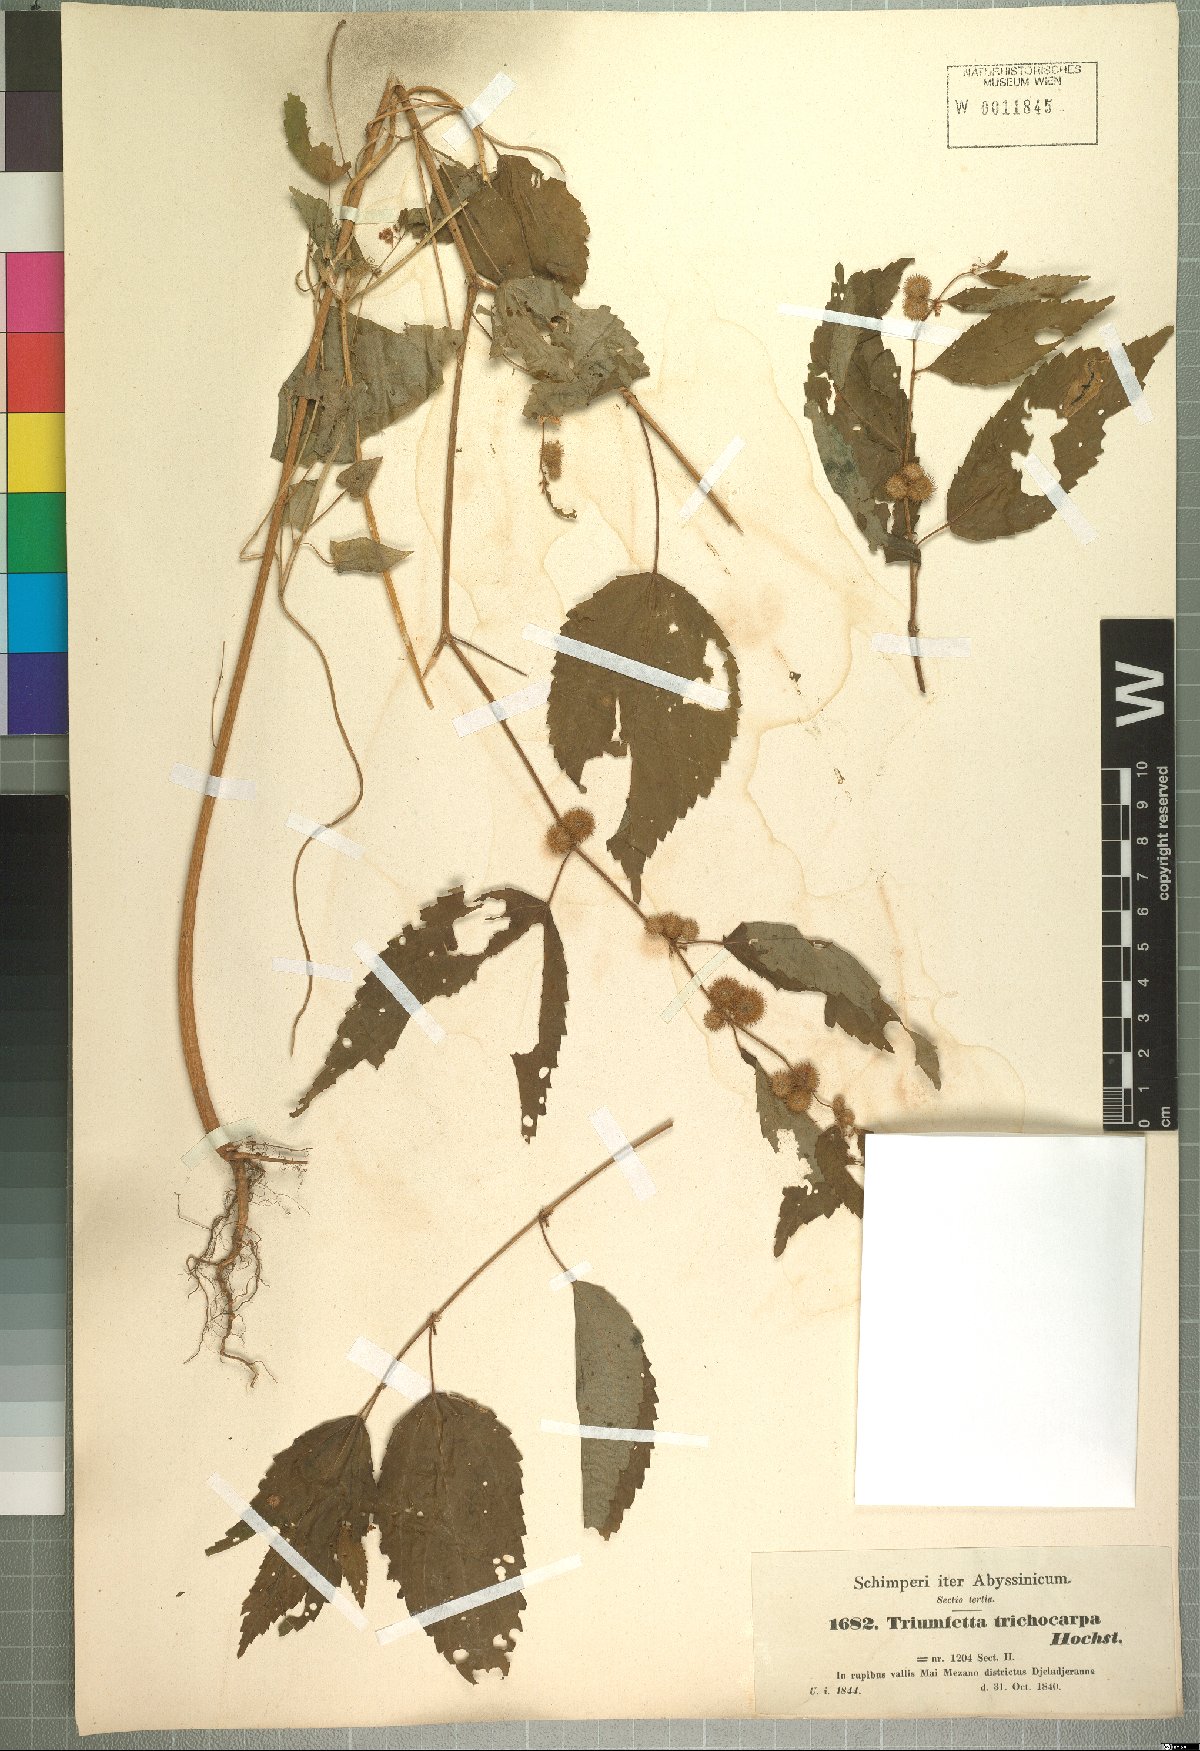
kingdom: Plantae
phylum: Tracheophyta
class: Magnoliopsida
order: Malvales
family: Malvaceae
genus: Triumfetta
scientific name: Triumfetta trichocarpa
